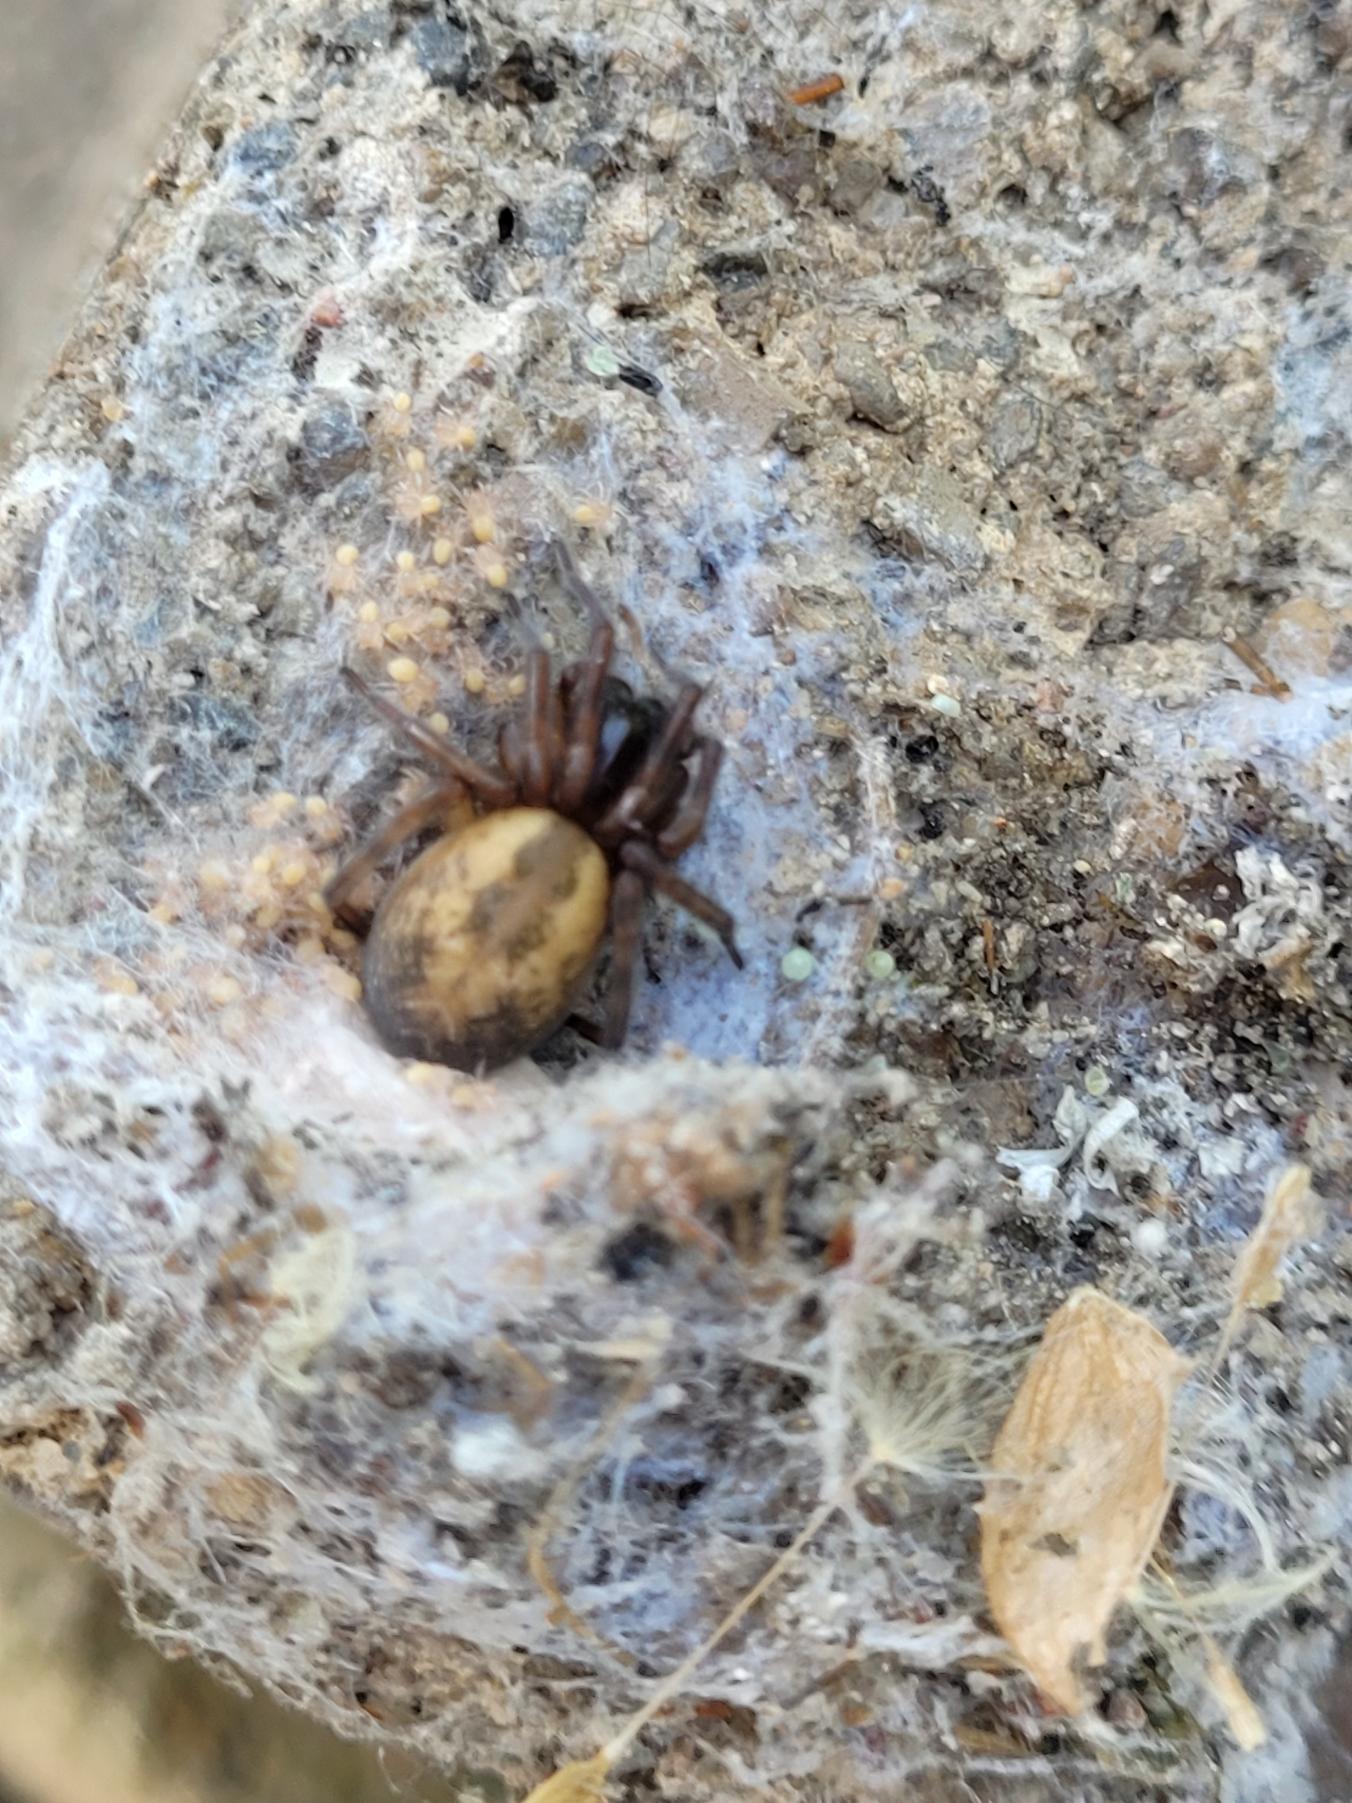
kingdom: Animalia
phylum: Arthropoda
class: Arachnida
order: Araneae
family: Amaurobiidae
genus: Amaurobius
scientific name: Amaurobius similis
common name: Huskartespinder
